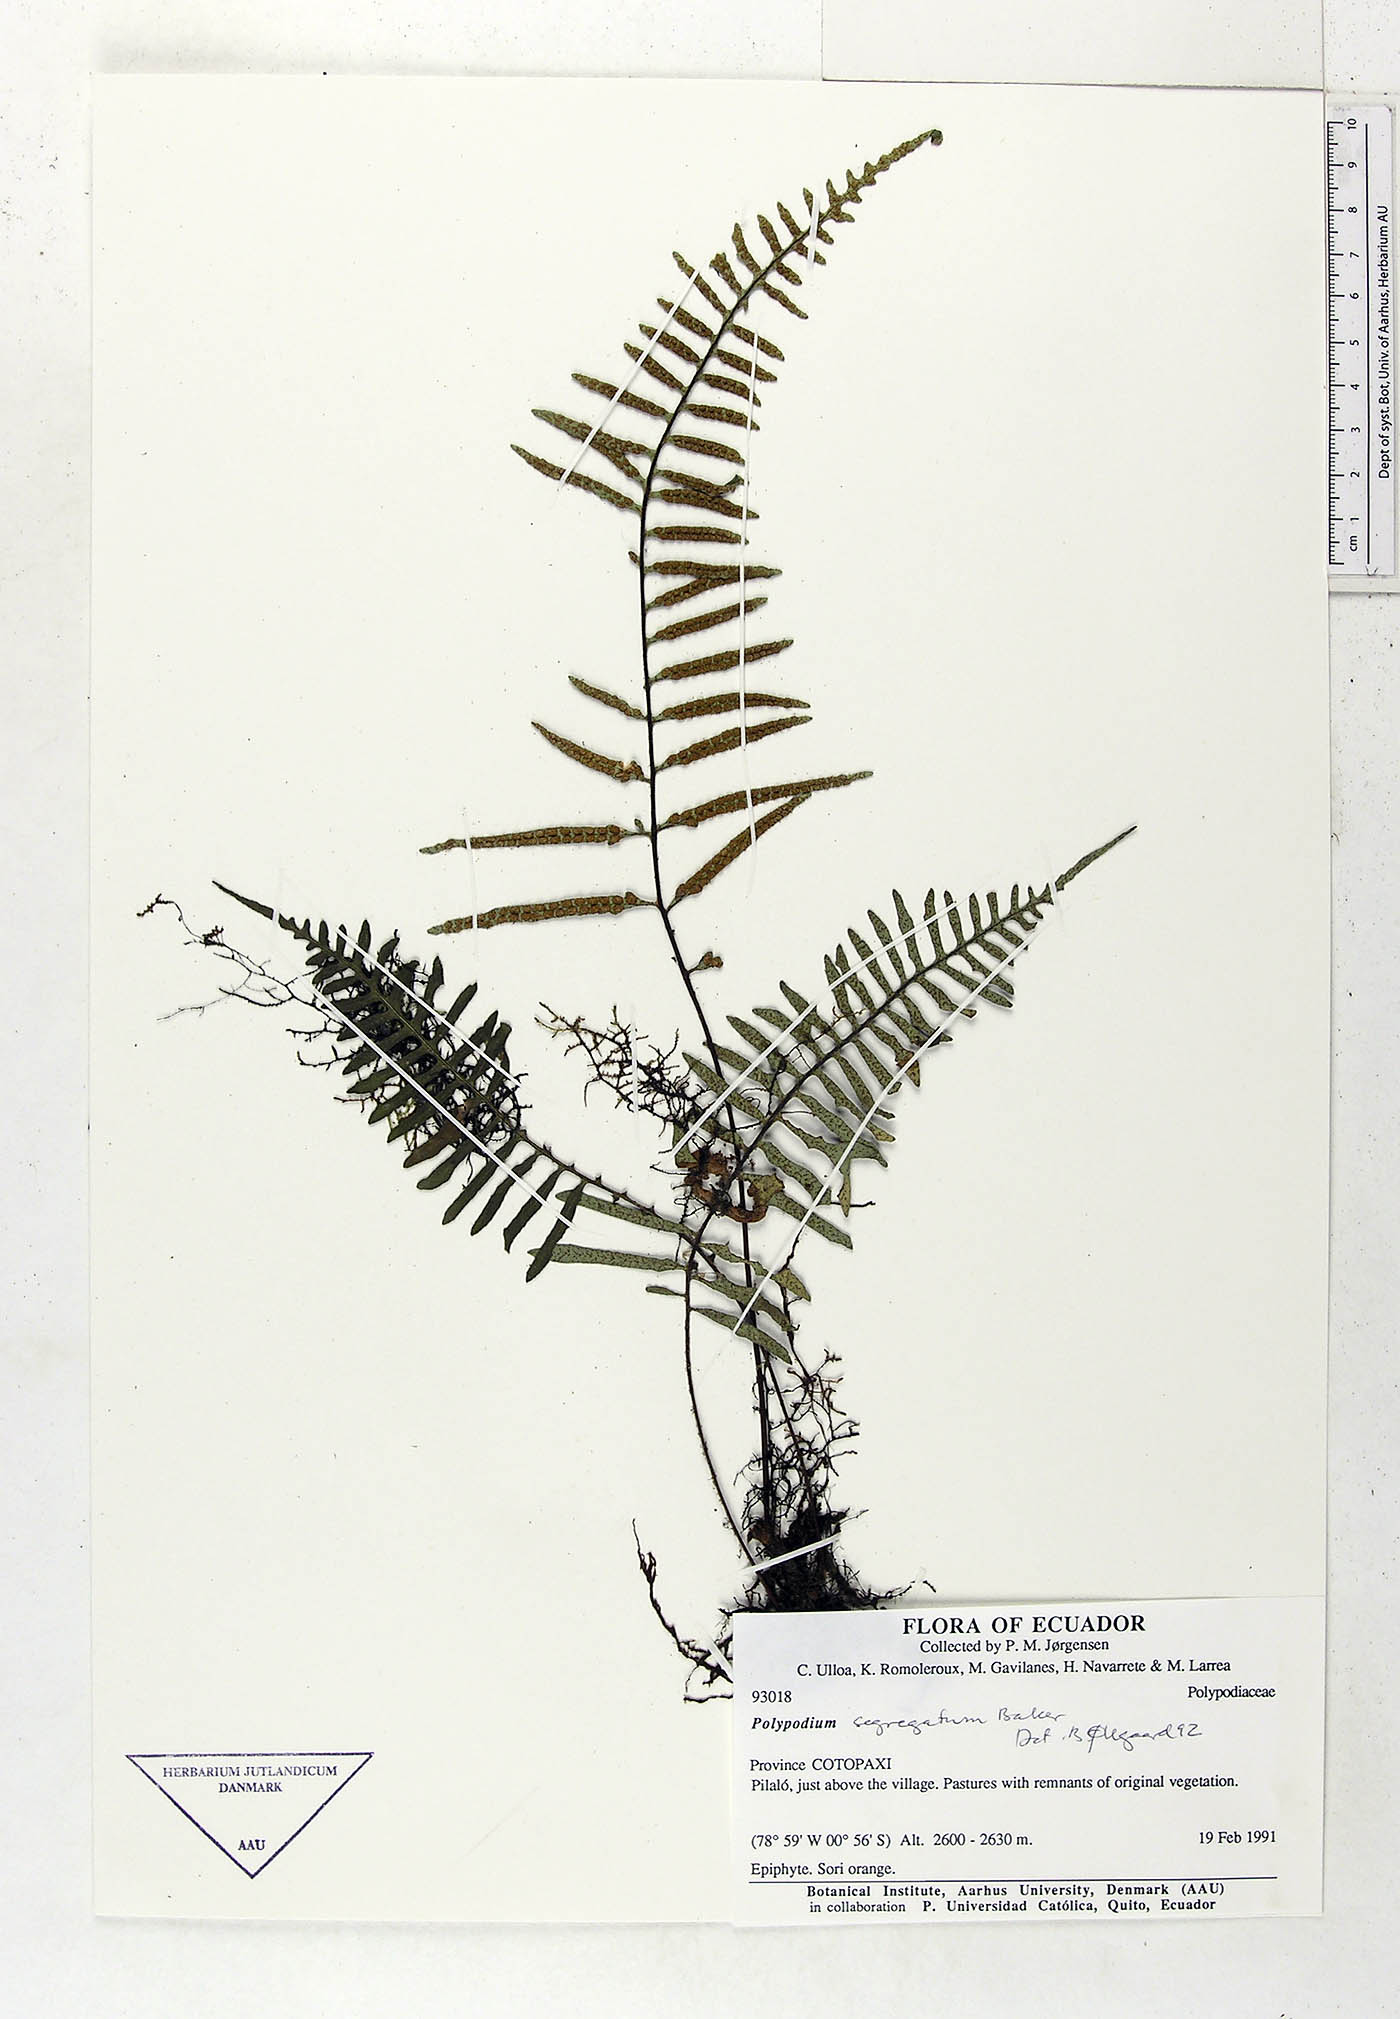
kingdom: Plantae
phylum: Tracheophyta
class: Polypodiopsida
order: Polypodiales
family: Polypodiaceae
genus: Pleopeltis
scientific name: Pleopeltis segregata
